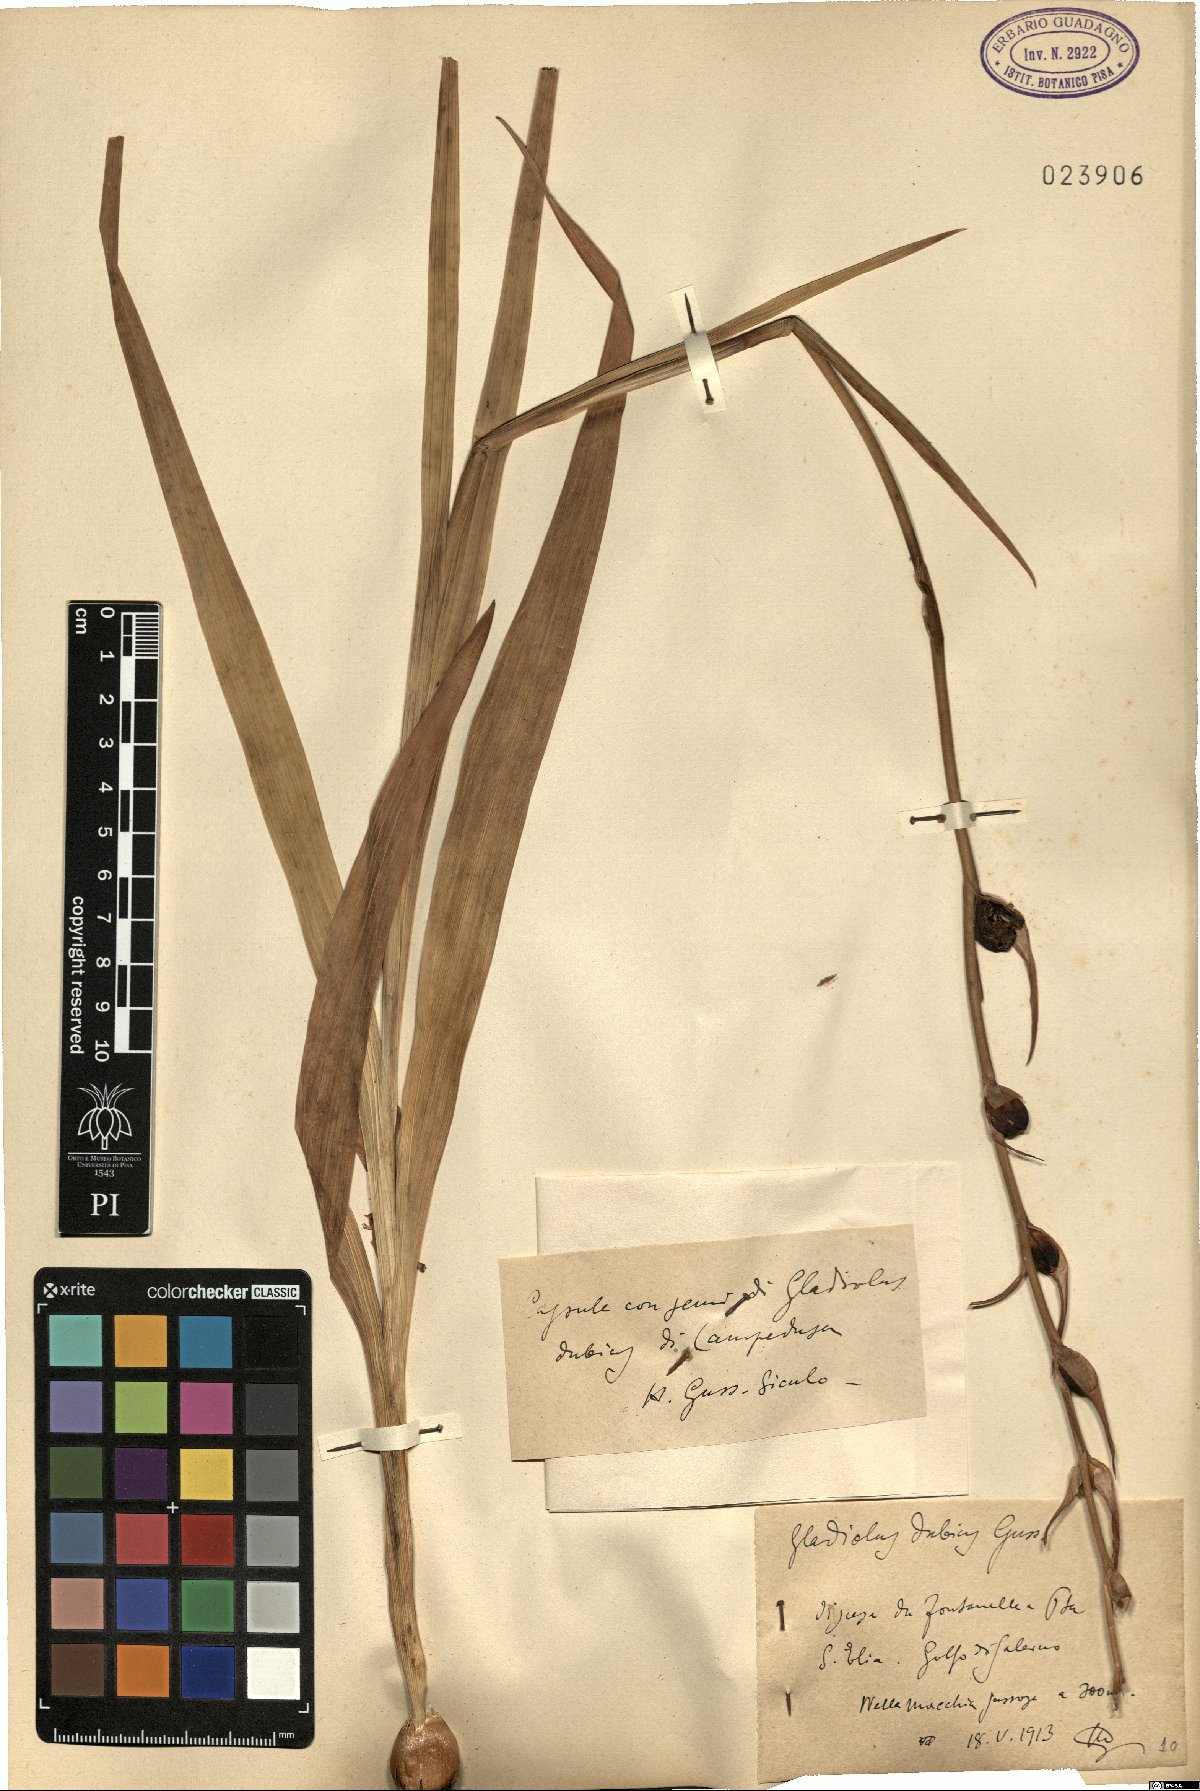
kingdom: Plantae
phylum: Tracheophyta
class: Liliopsida
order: Asparagales
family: Iridaceae
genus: Gladiolus
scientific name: Gladiolus dubius
